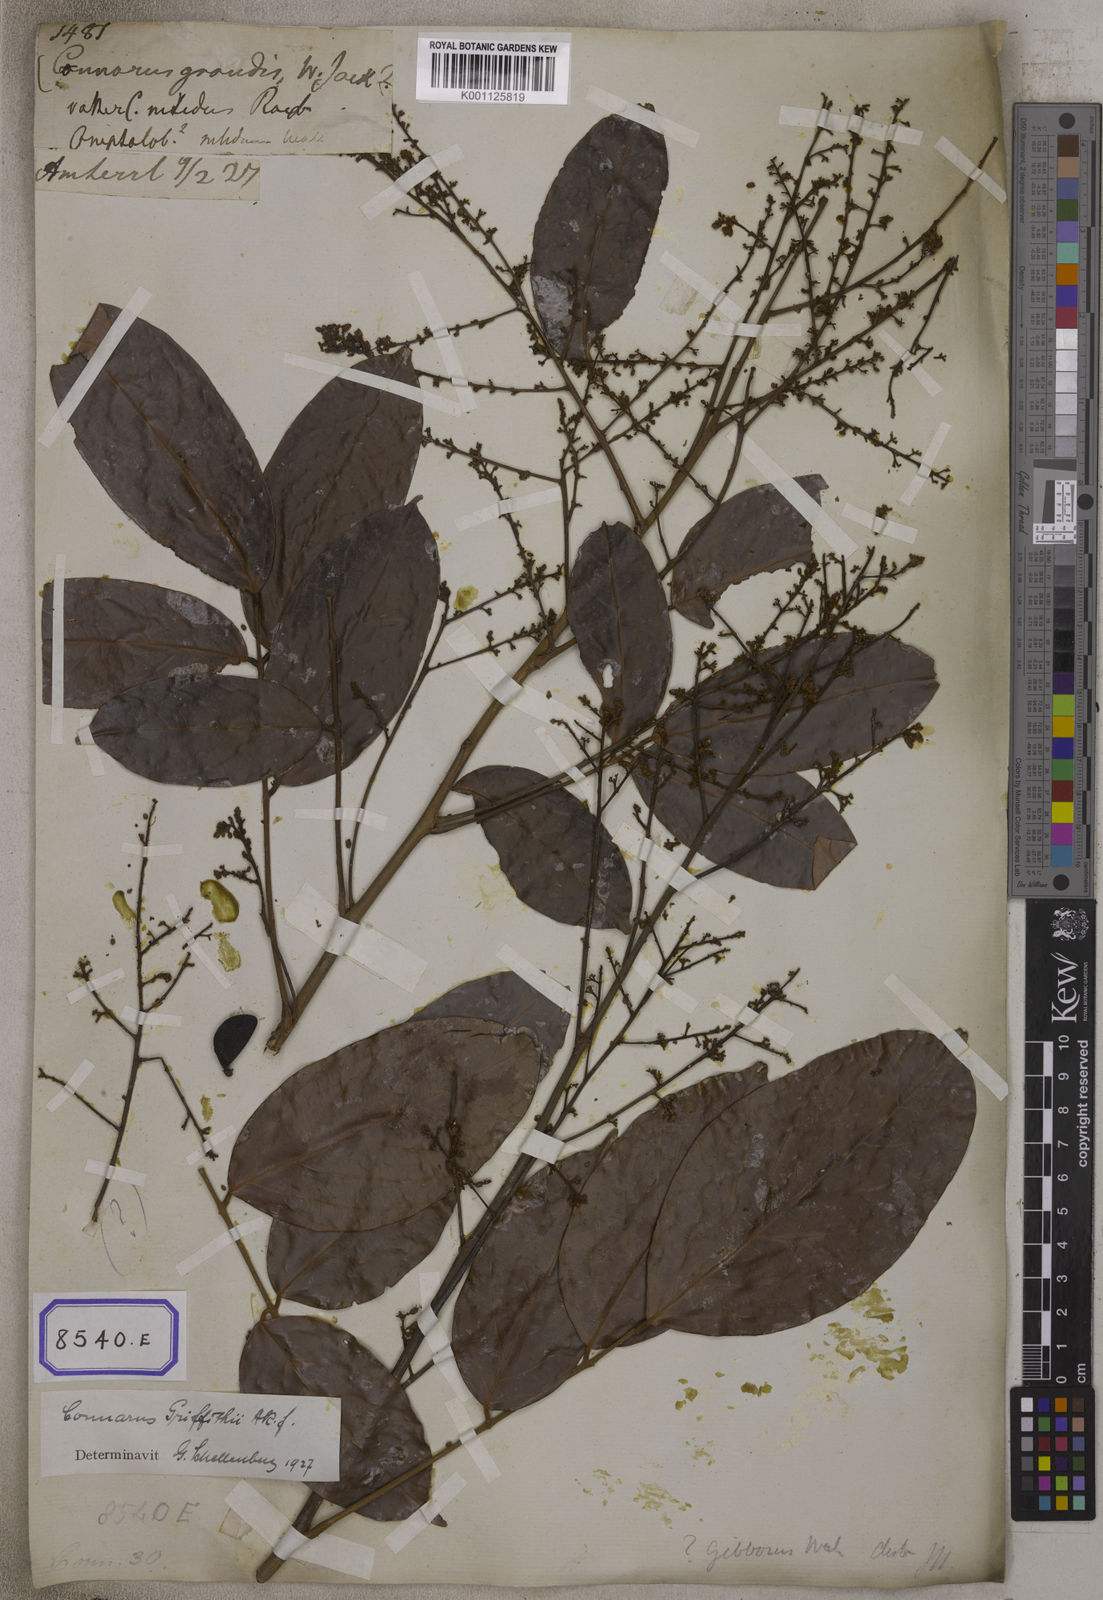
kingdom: Plantae
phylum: Tracheophyta
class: Magnoliopsida
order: Oxalidales
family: Connaraceae
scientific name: Connaraceae
